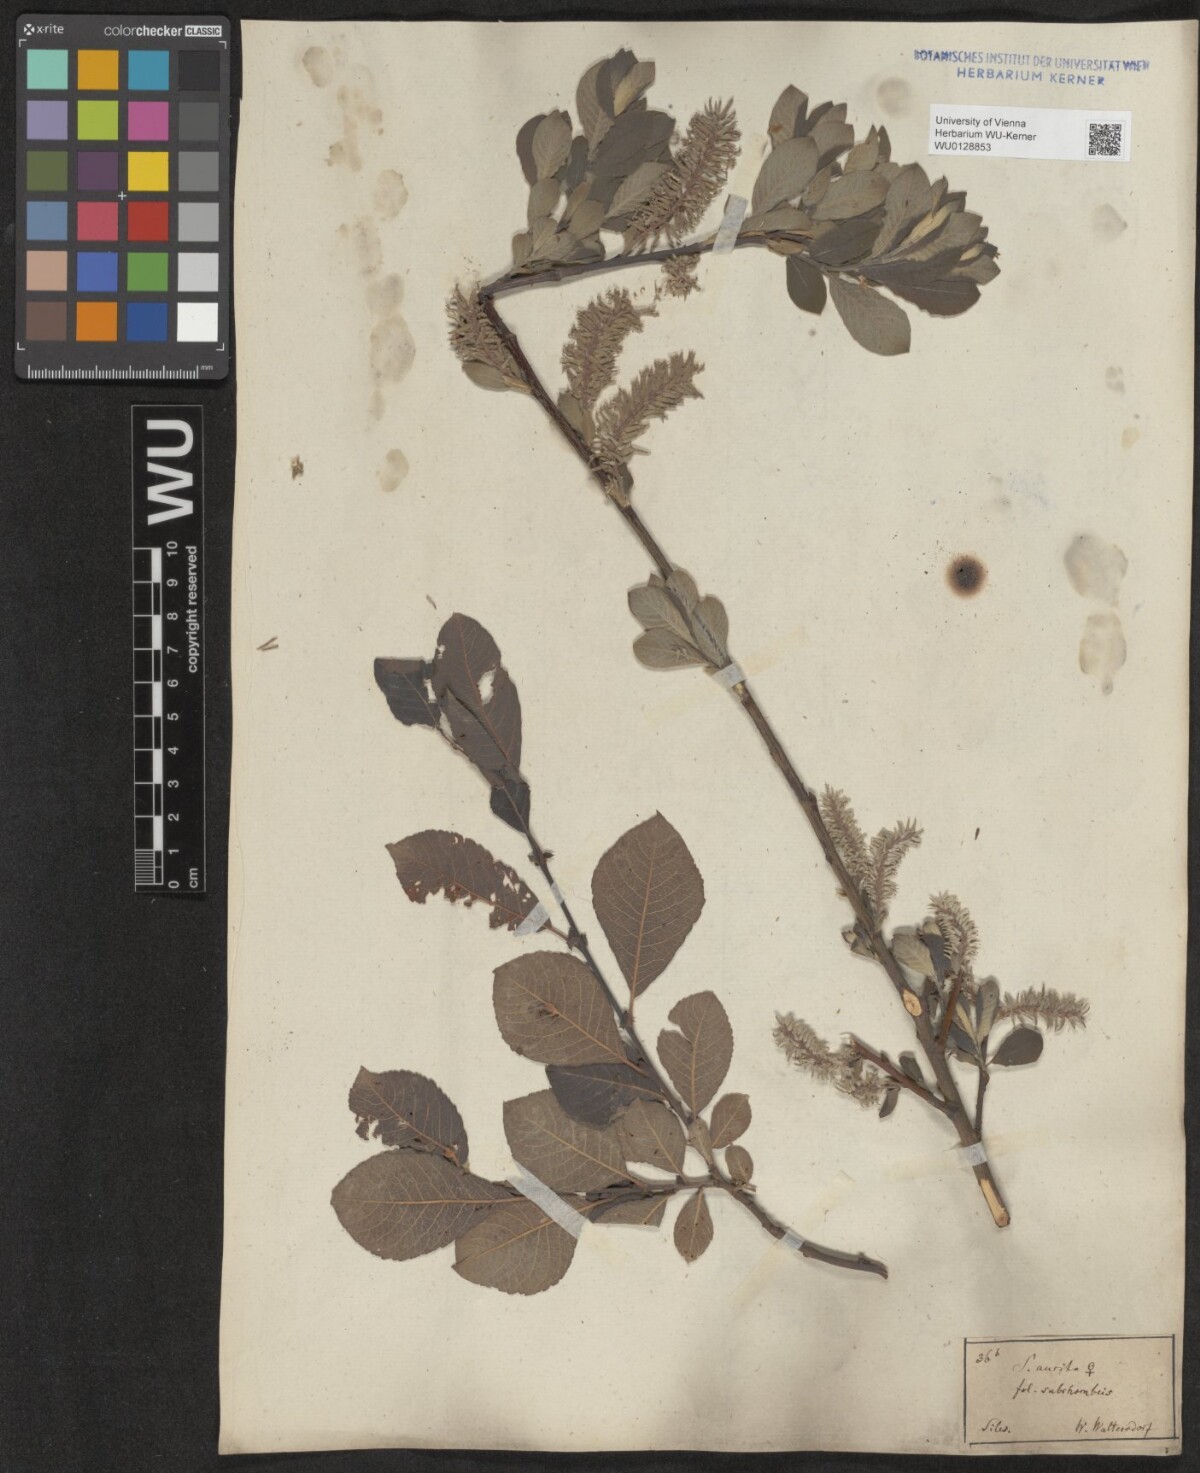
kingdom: Plantae
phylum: Tracheophyta
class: Magnoliopsida
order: Malpighiales
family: Salicaceae
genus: Salix
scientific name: Salix aurita
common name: Eared willow
